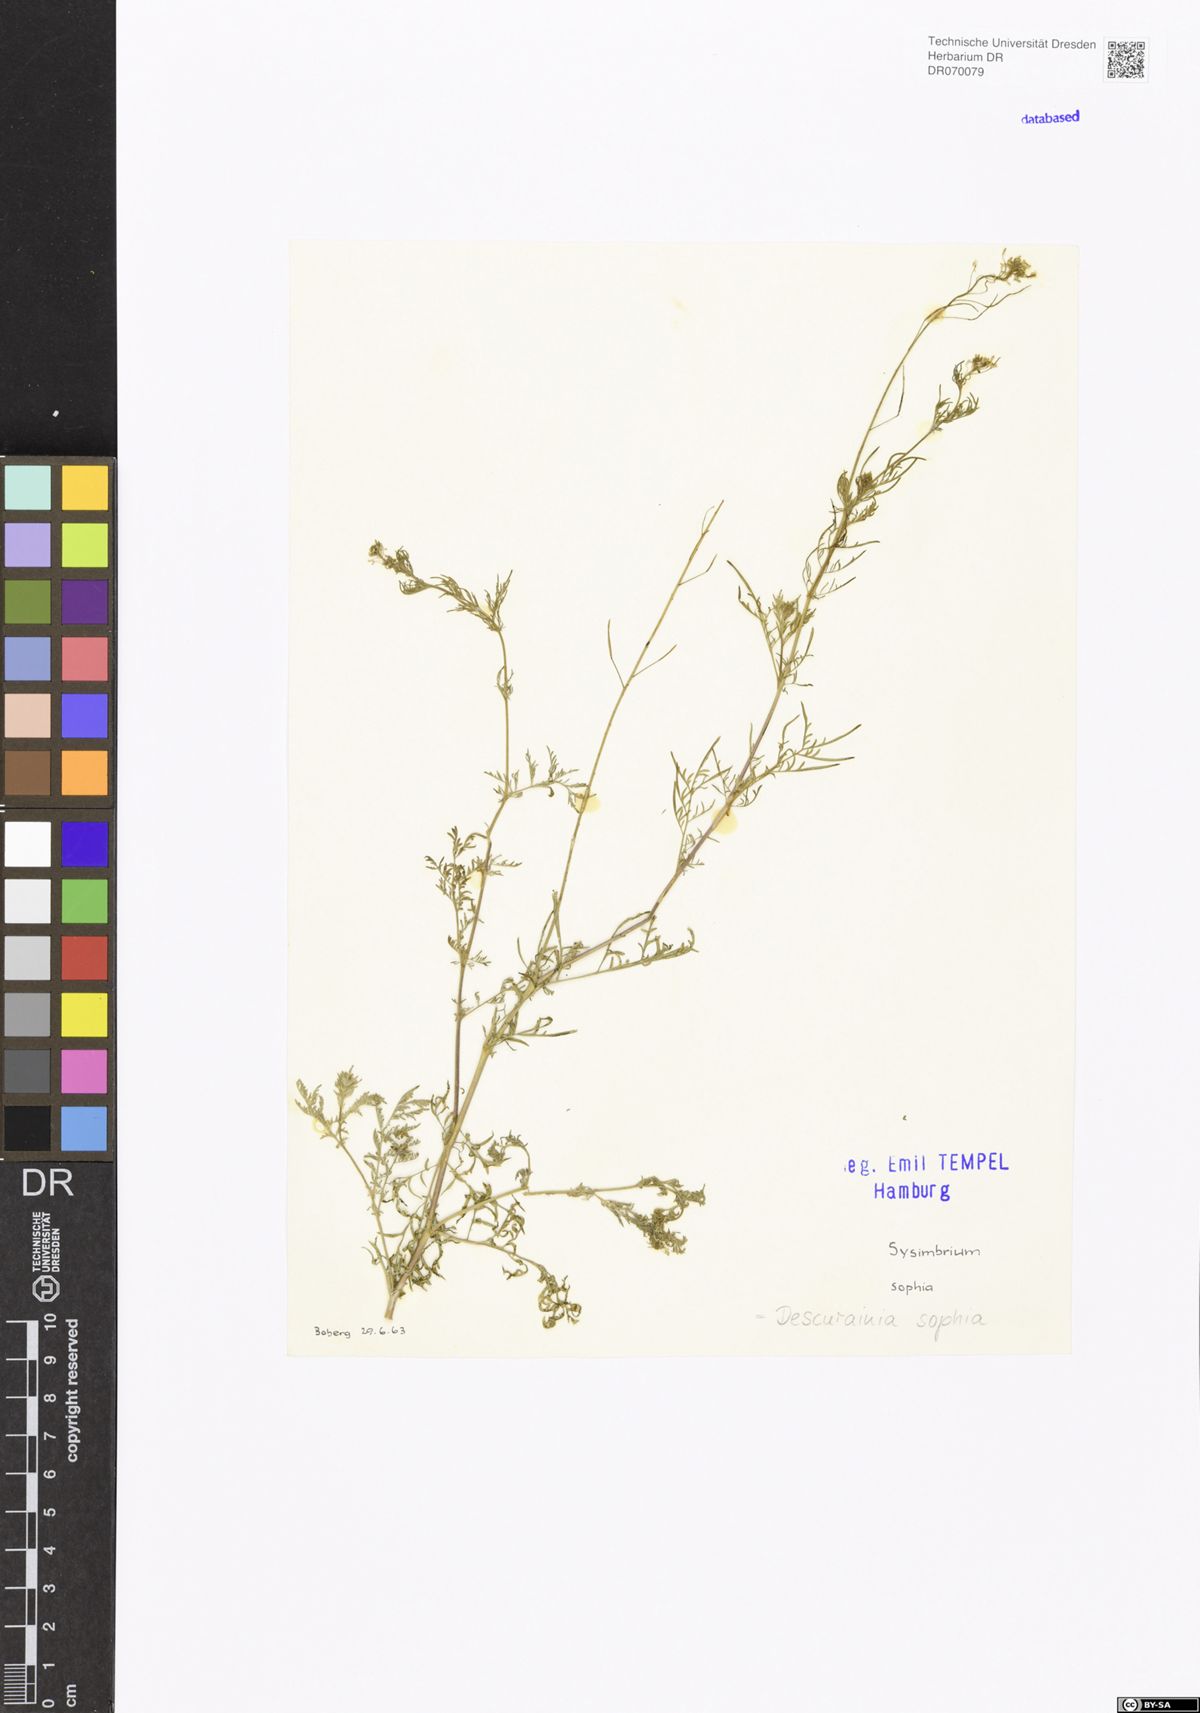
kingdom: Plantae
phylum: Tracheophyta
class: Magnoliopsida
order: Brassicales
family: Brassicaceae
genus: Descurainia
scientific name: Descurainia sophia
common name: Flixweed
